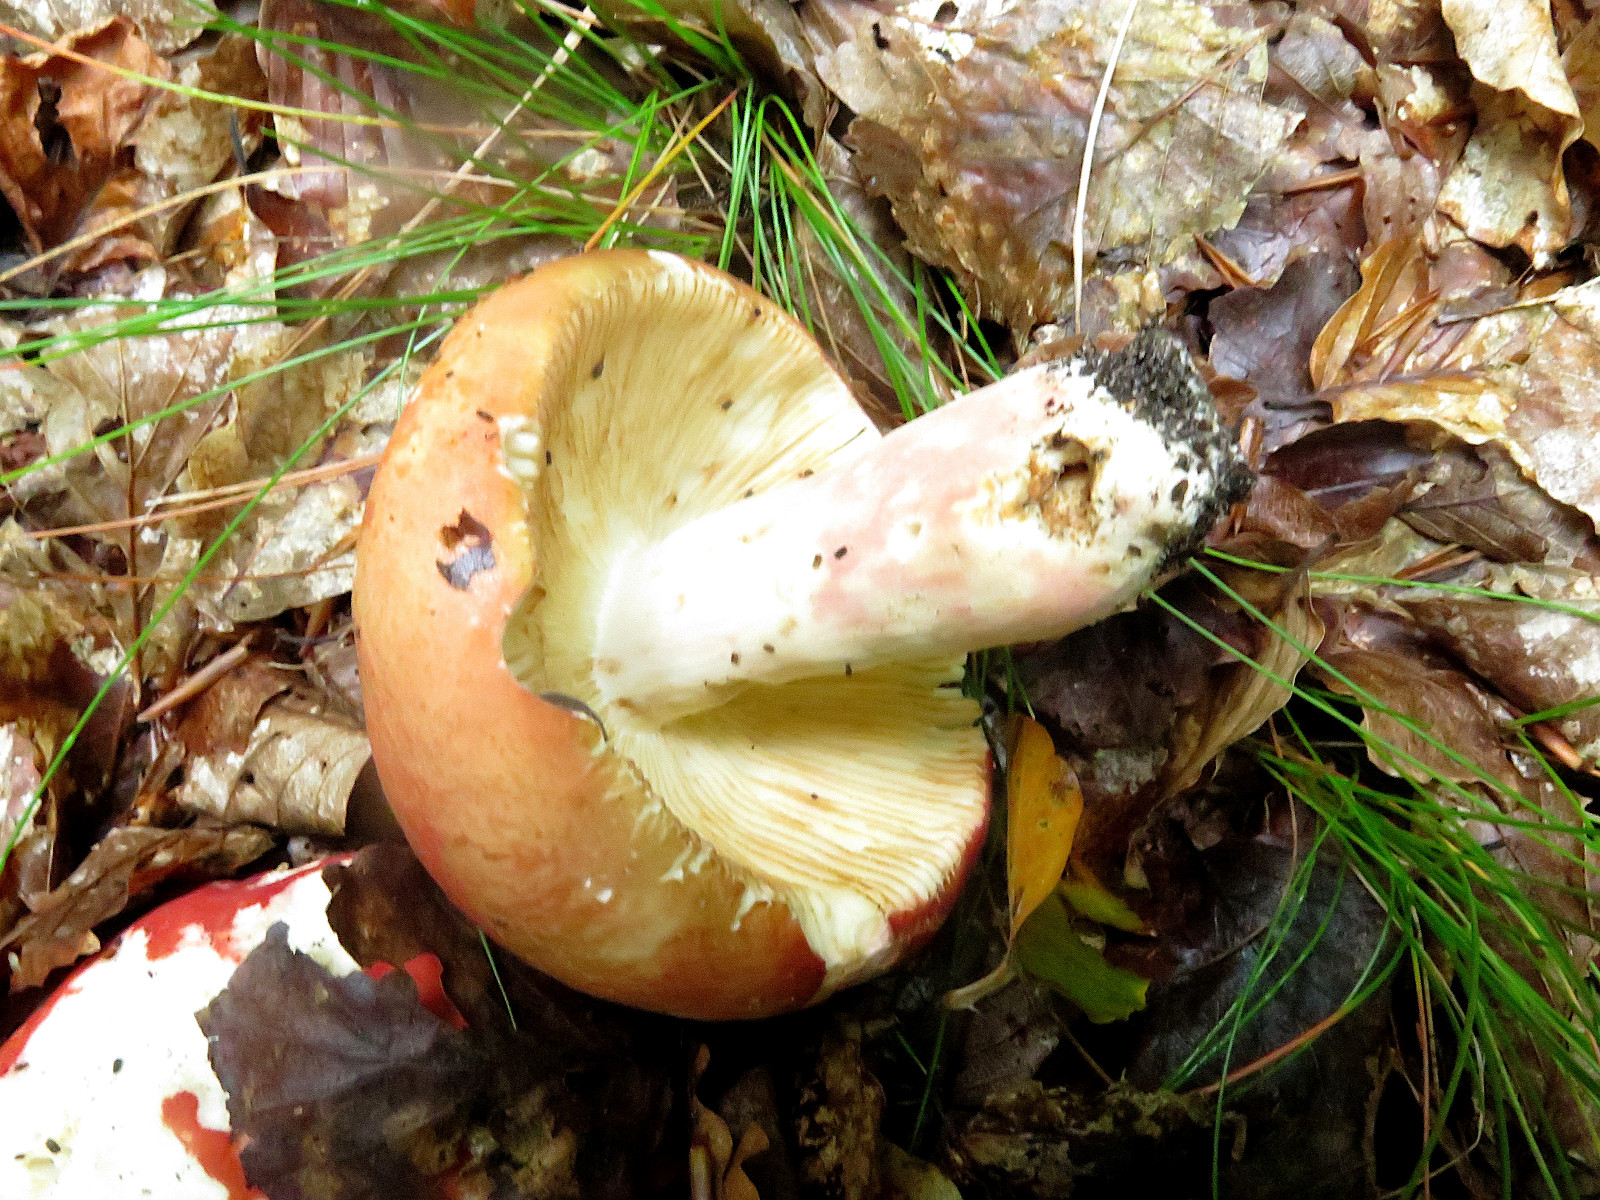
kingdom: Fungi
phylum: Basidiomycota
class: Agaricomycetes
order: Russulales
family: Russulaceae
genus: Russula
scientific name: Russula rosea
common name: fastkødet skørhat
